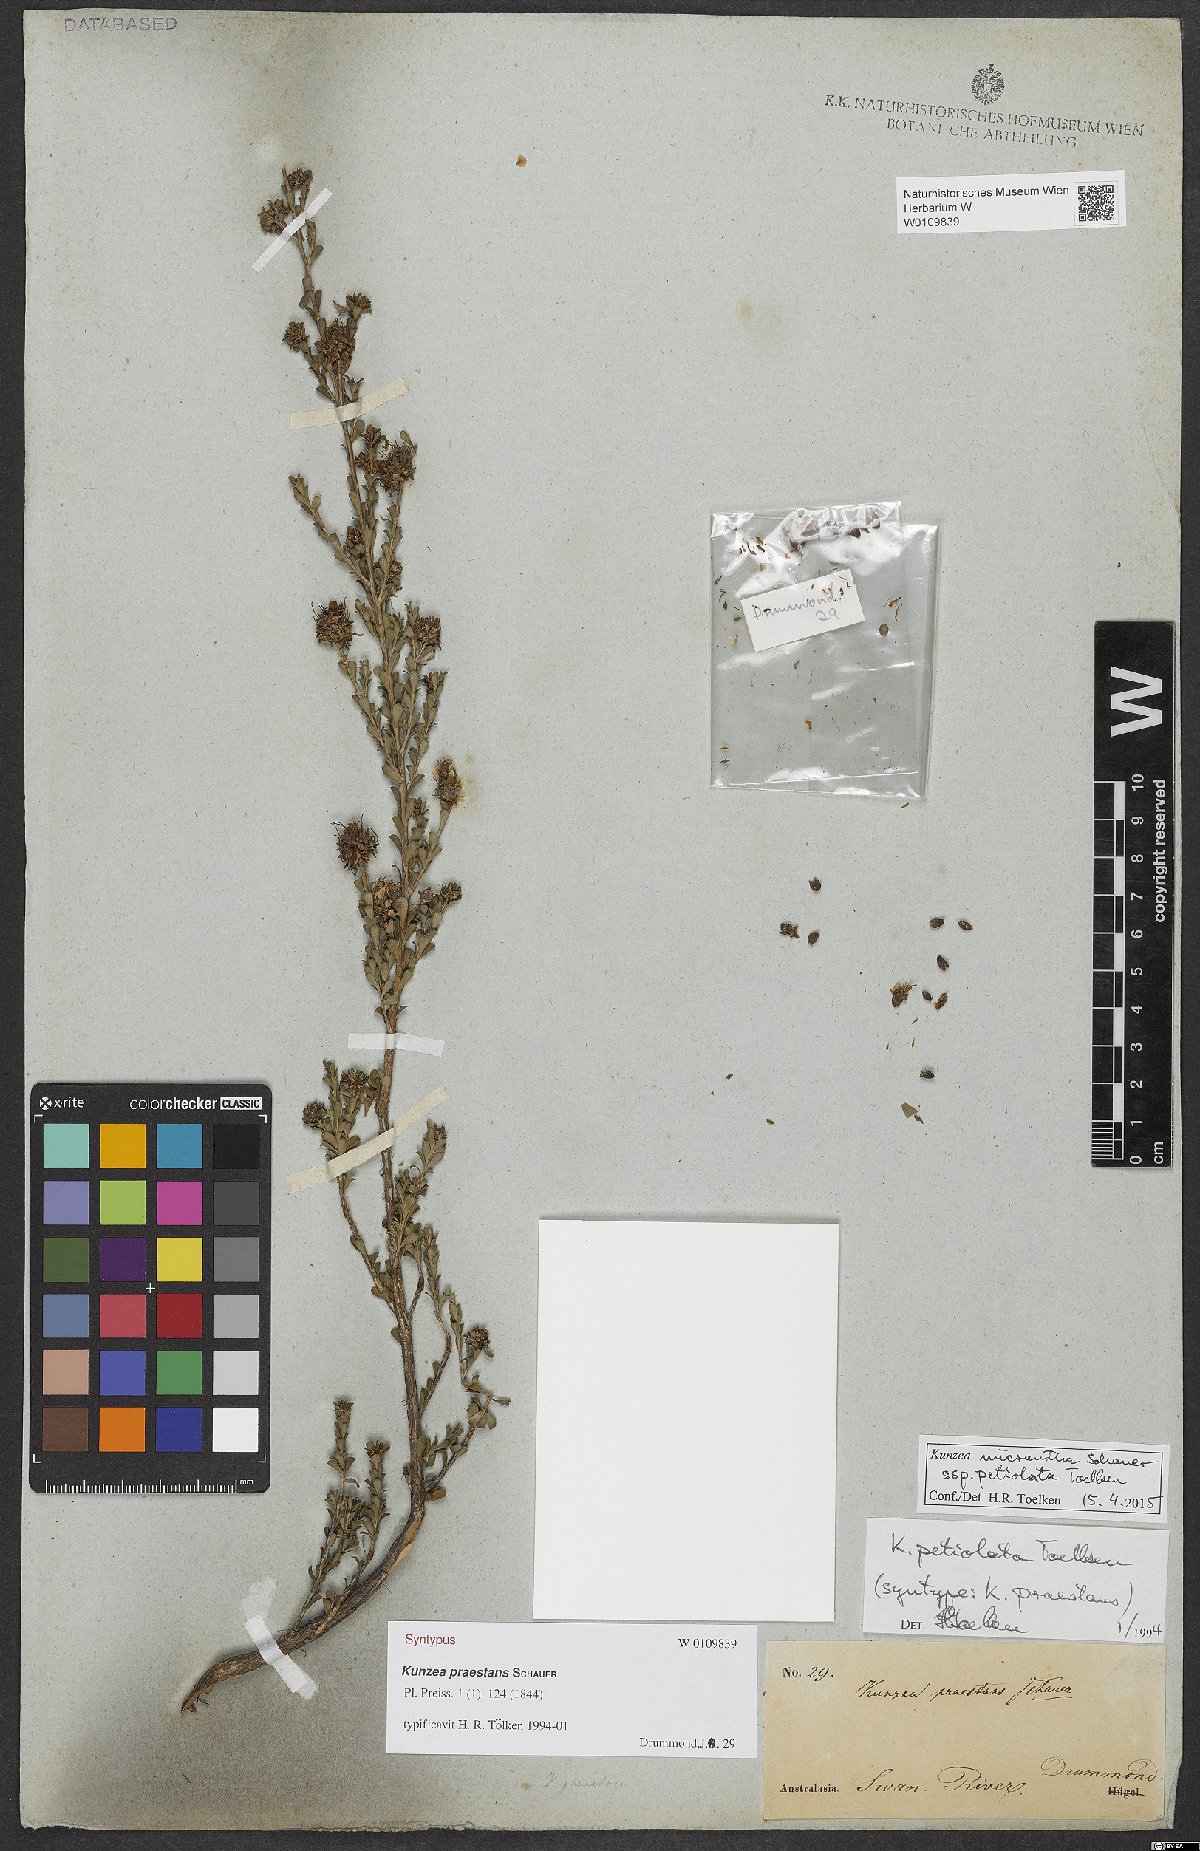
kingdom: Plantae
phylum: Tracheophyta
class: Magnoliopsida
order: Myrtales
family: Myrtaceae
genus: Kunzea
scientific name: Kunzea praestans
